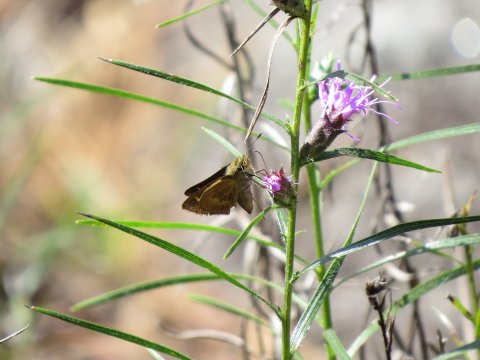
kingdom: Animalia
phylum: Arthropoda
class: Insecta
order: Lepidoptera
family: Hesperiidae
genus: Wallengrenia
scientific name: Wallengrenia otho
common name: Southern Broken-Dash
